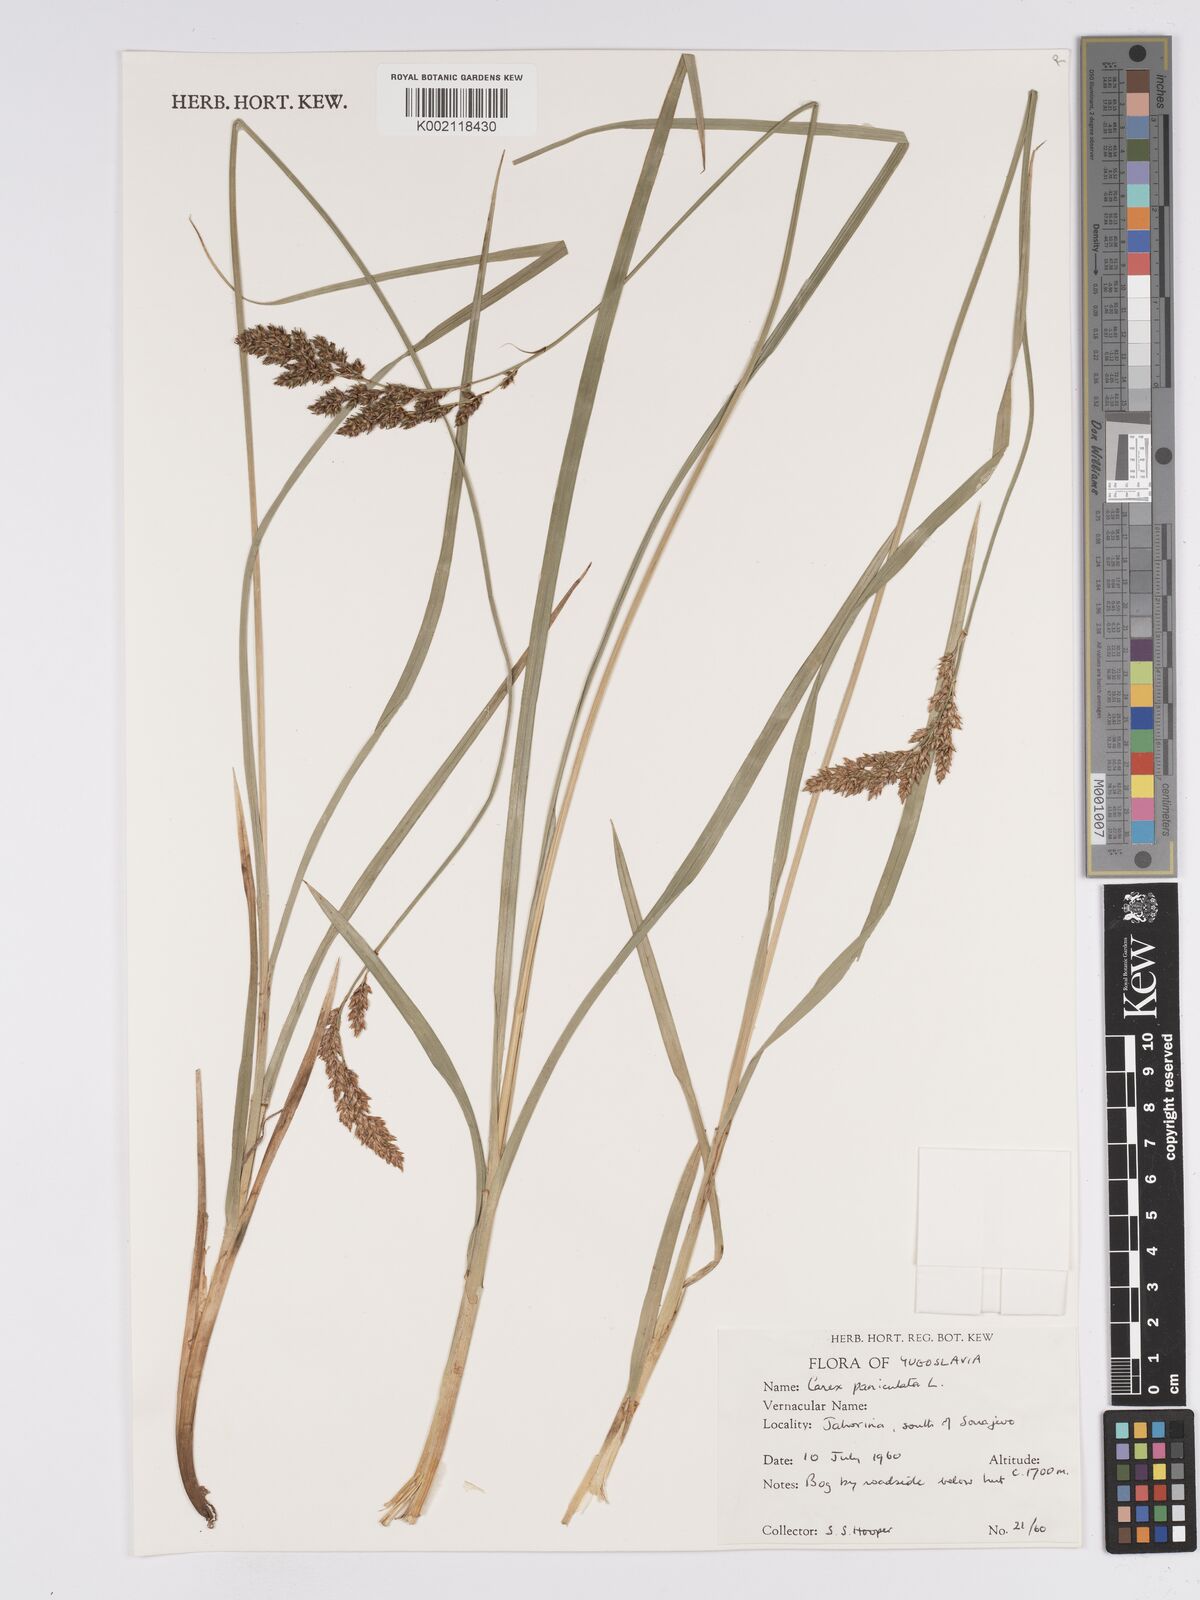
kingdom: Plantae
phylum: Tracheophyta
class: Liliopsida
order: Poales
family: Cyperaceae
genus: Carex
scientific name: Carex paniculata
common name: Greater tussock-sedge
